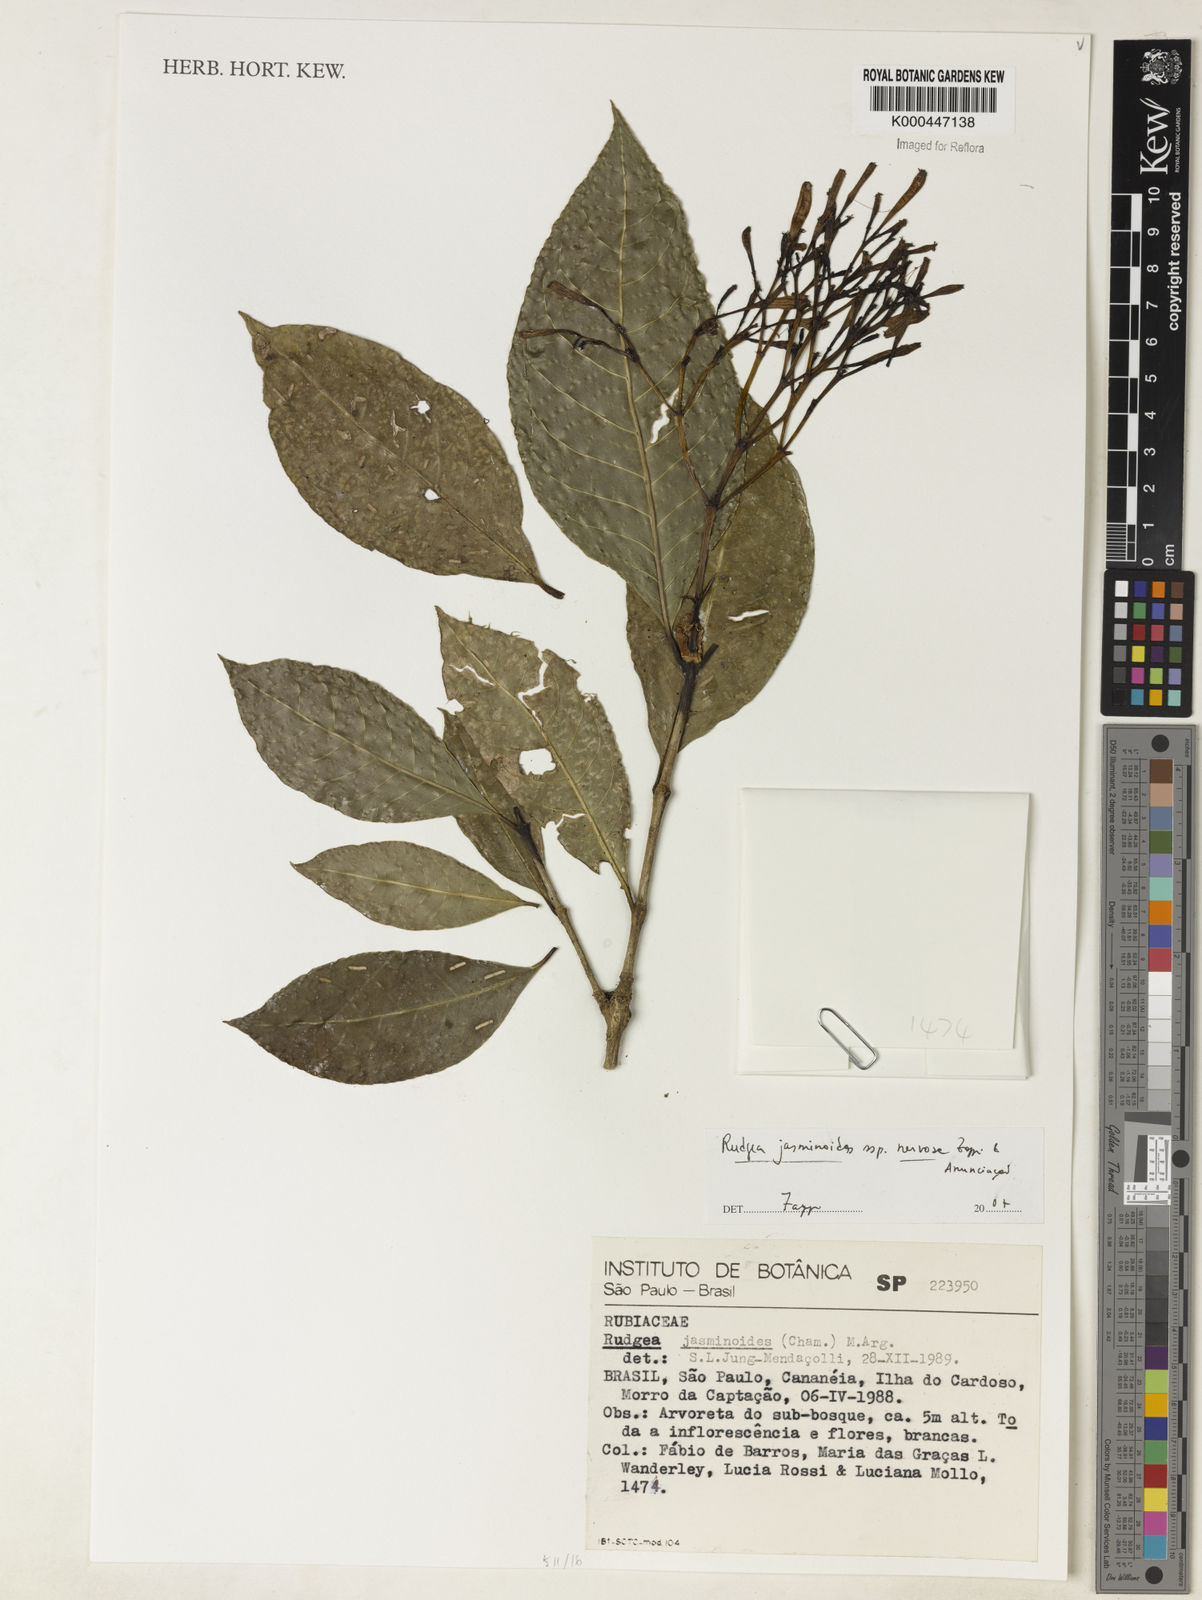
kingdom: Plantae
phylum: Tracheophyta
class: Magnoliopsida
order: Gentianales
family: Rubiaceae
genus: Rudgea
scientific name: Rudgea jasminoides
